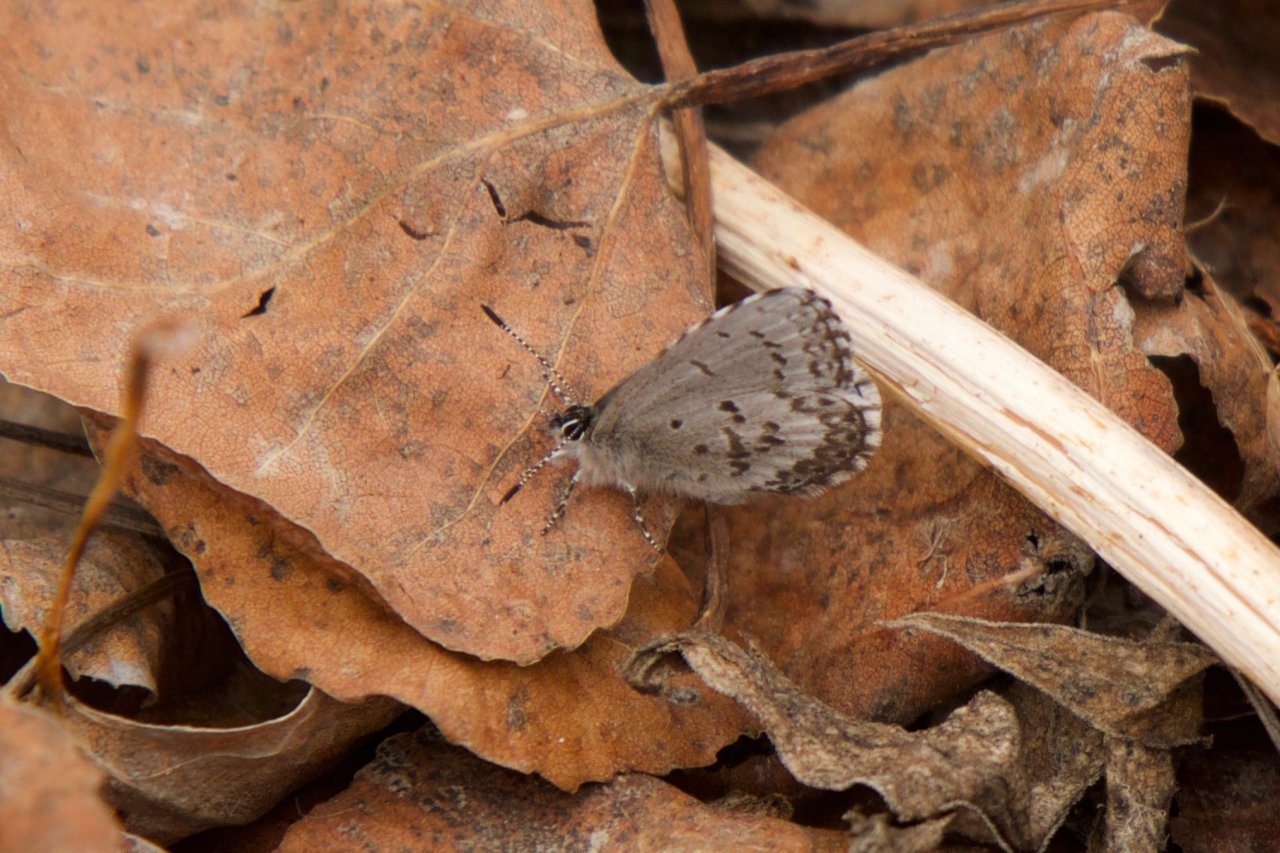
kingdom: Animalia
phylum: Arthropoda
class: Insecta
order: Lepidoptera
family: Lycaenidae
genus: Celastrina
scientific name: Celastrina lucia
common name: Northern Spring Azure
